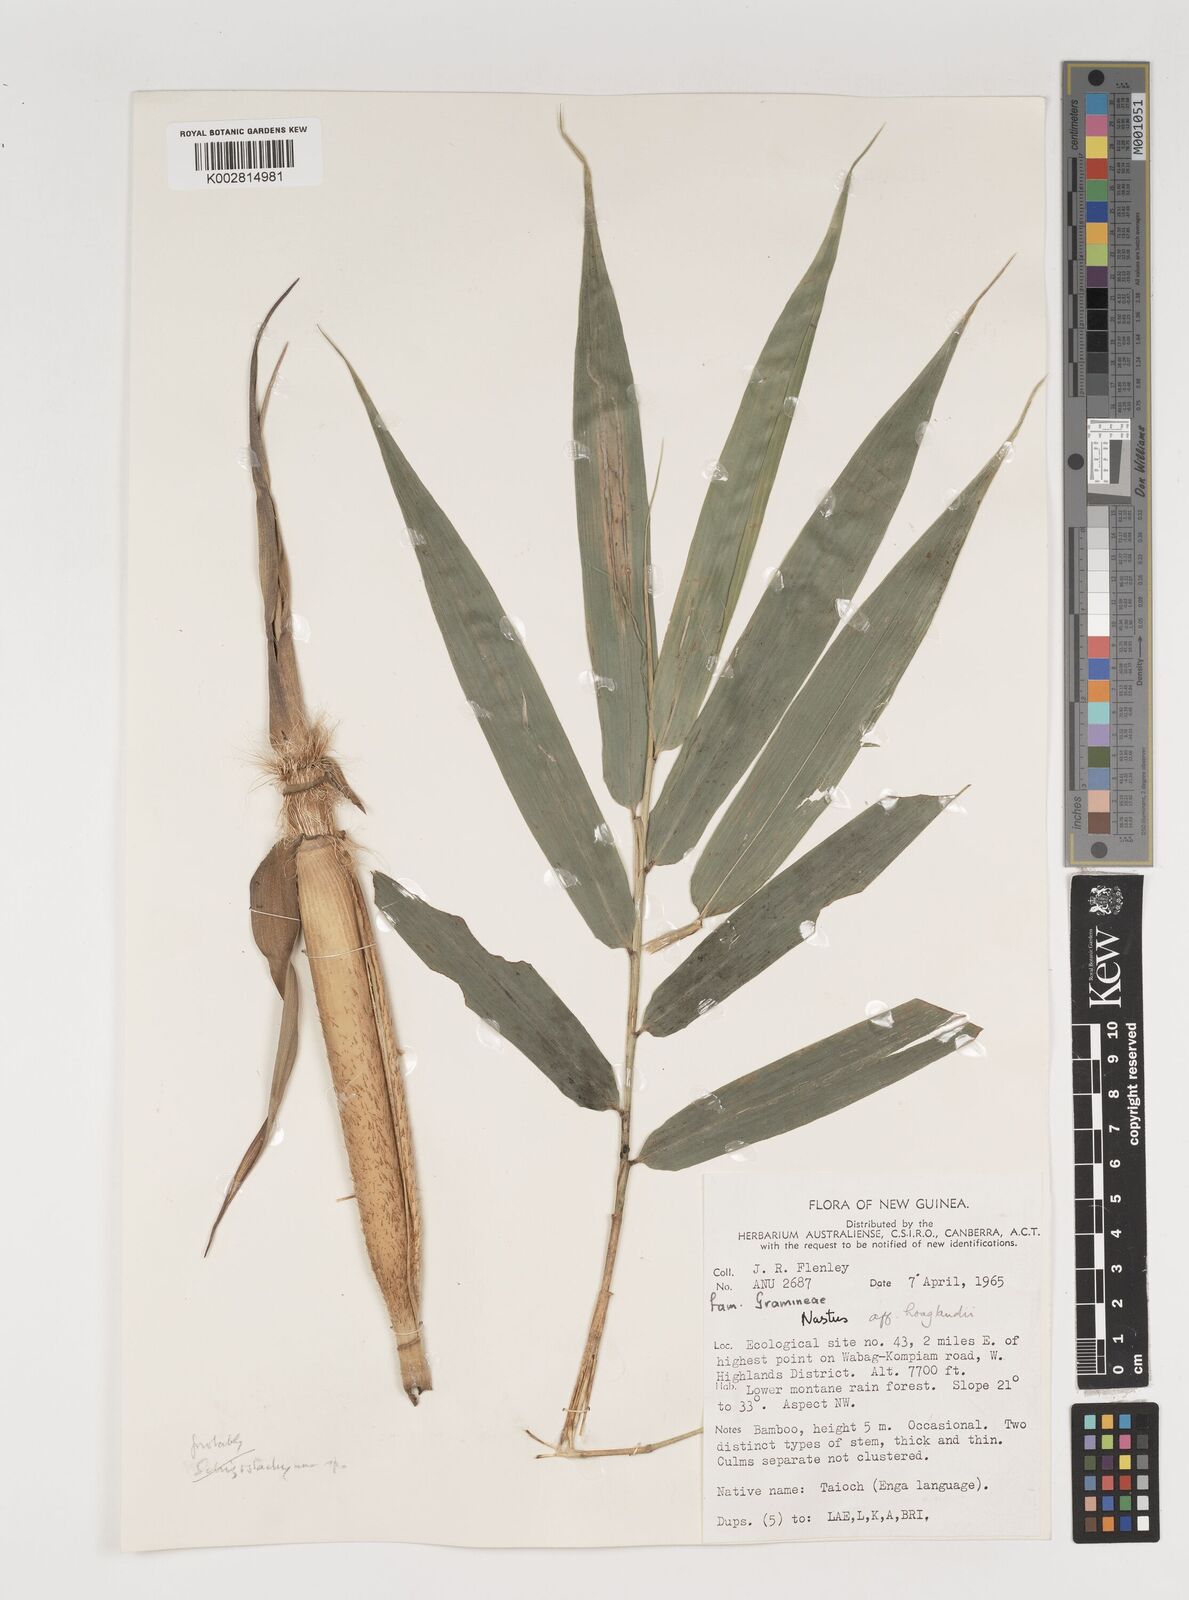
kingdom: Plantae
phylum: Tracheophyta
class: Liliopsida
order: Poales
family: Poaceae
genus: Greslania
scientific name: Greslania
